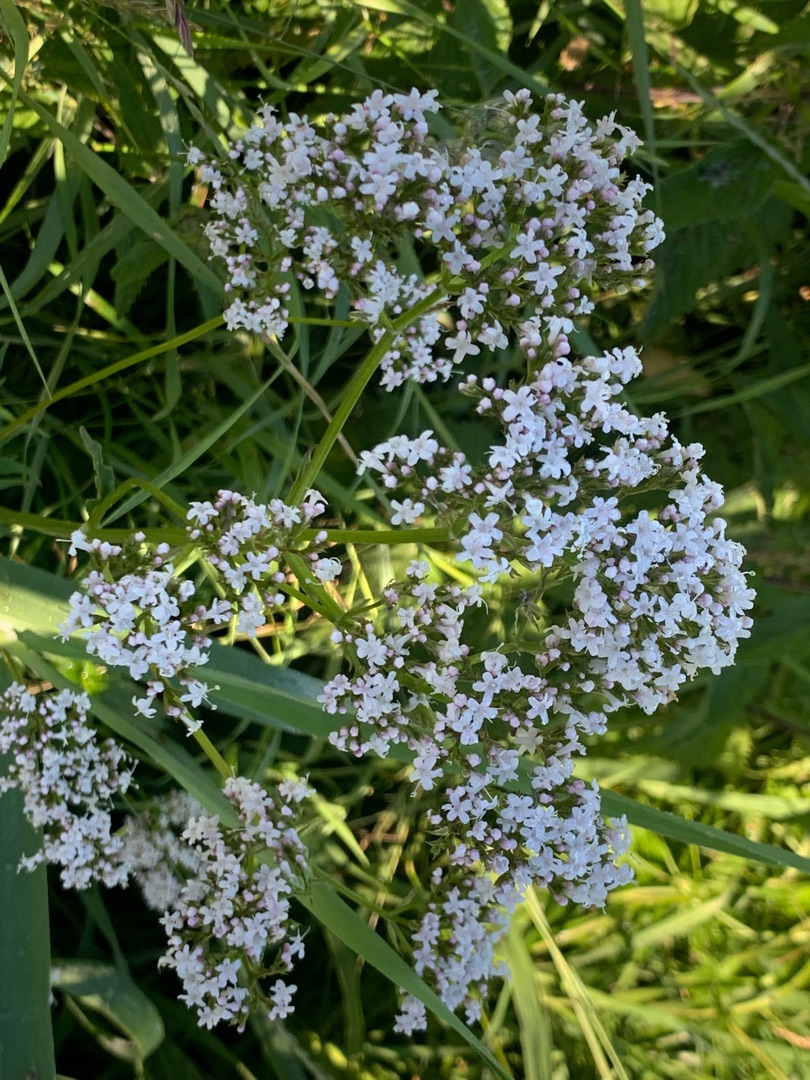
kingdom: Plantae
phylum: Tracheophyta
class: Magnoliopsida
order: Dipsacales
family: Caprifoliaceae
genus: Valeriana
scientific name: Valeriana
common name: Baldrianslægten
